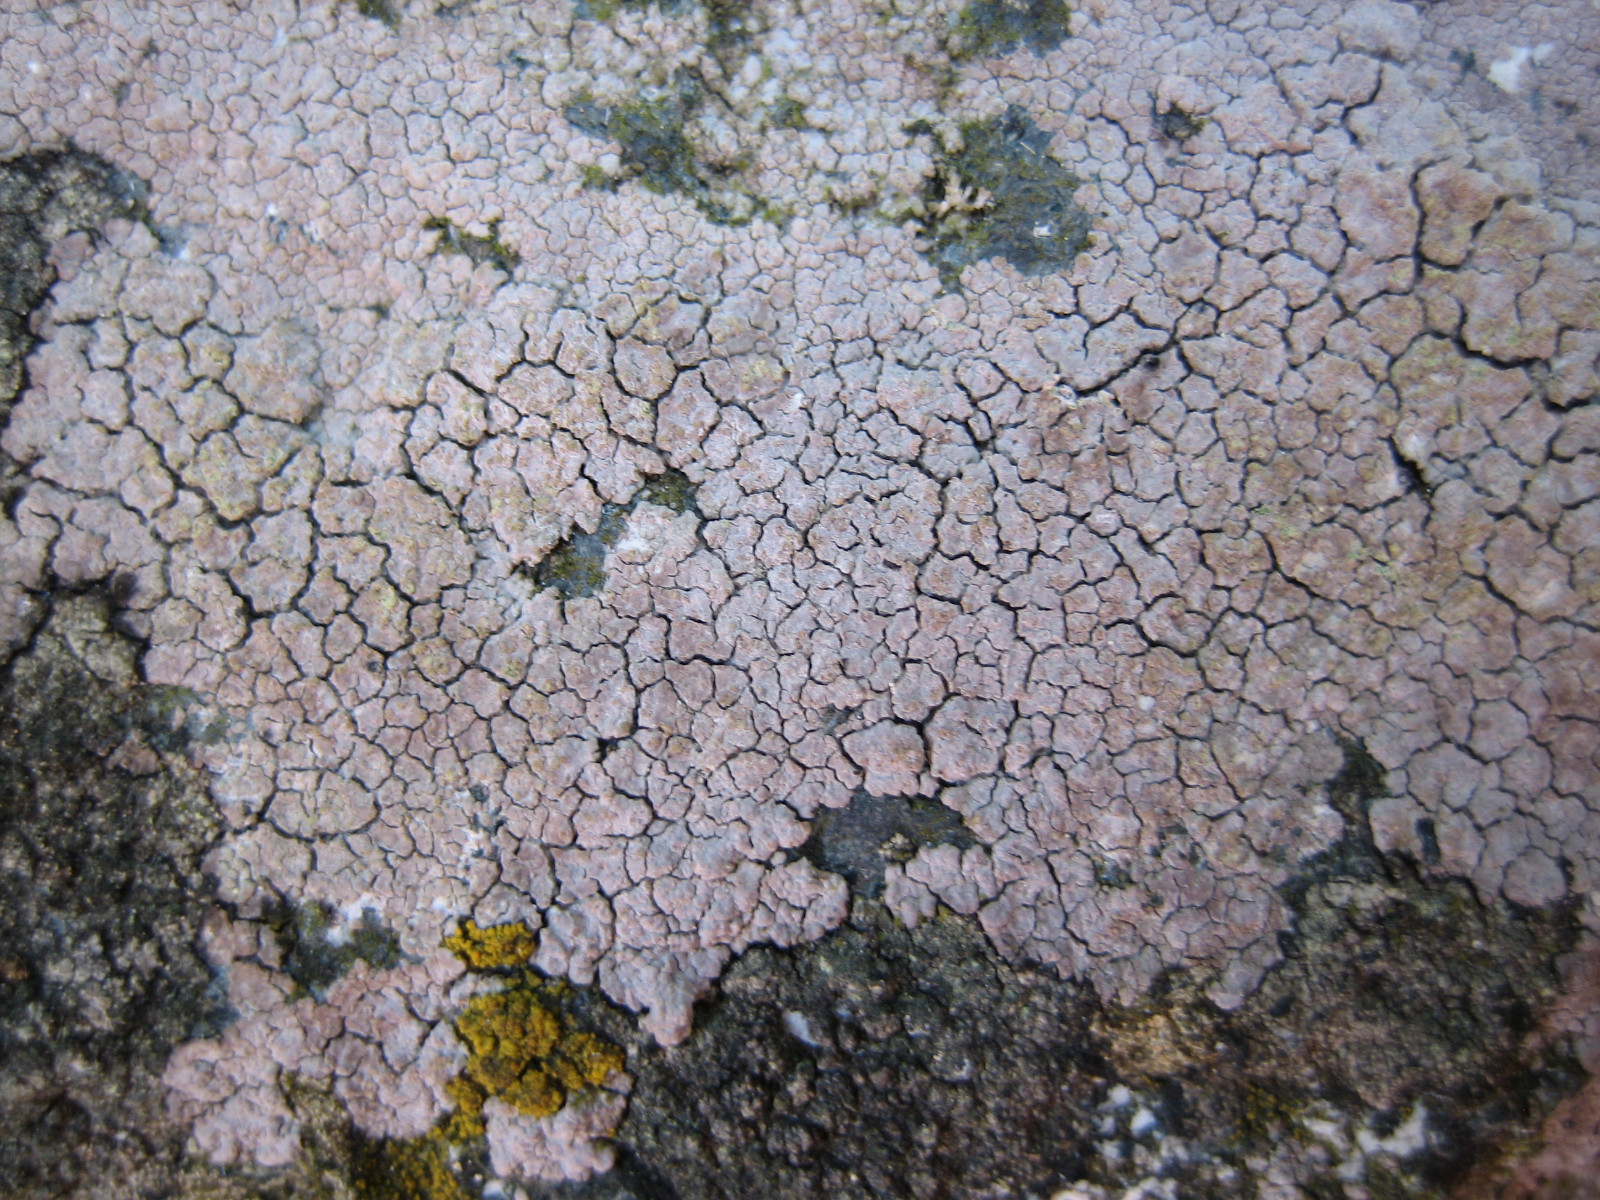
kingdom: Fungi
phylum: Ascomycota
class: Lecanoromycetes
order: Baeomycetales
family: Trapeliaceae
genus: Kleopowiella
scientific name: Kleopowiella placodioides
